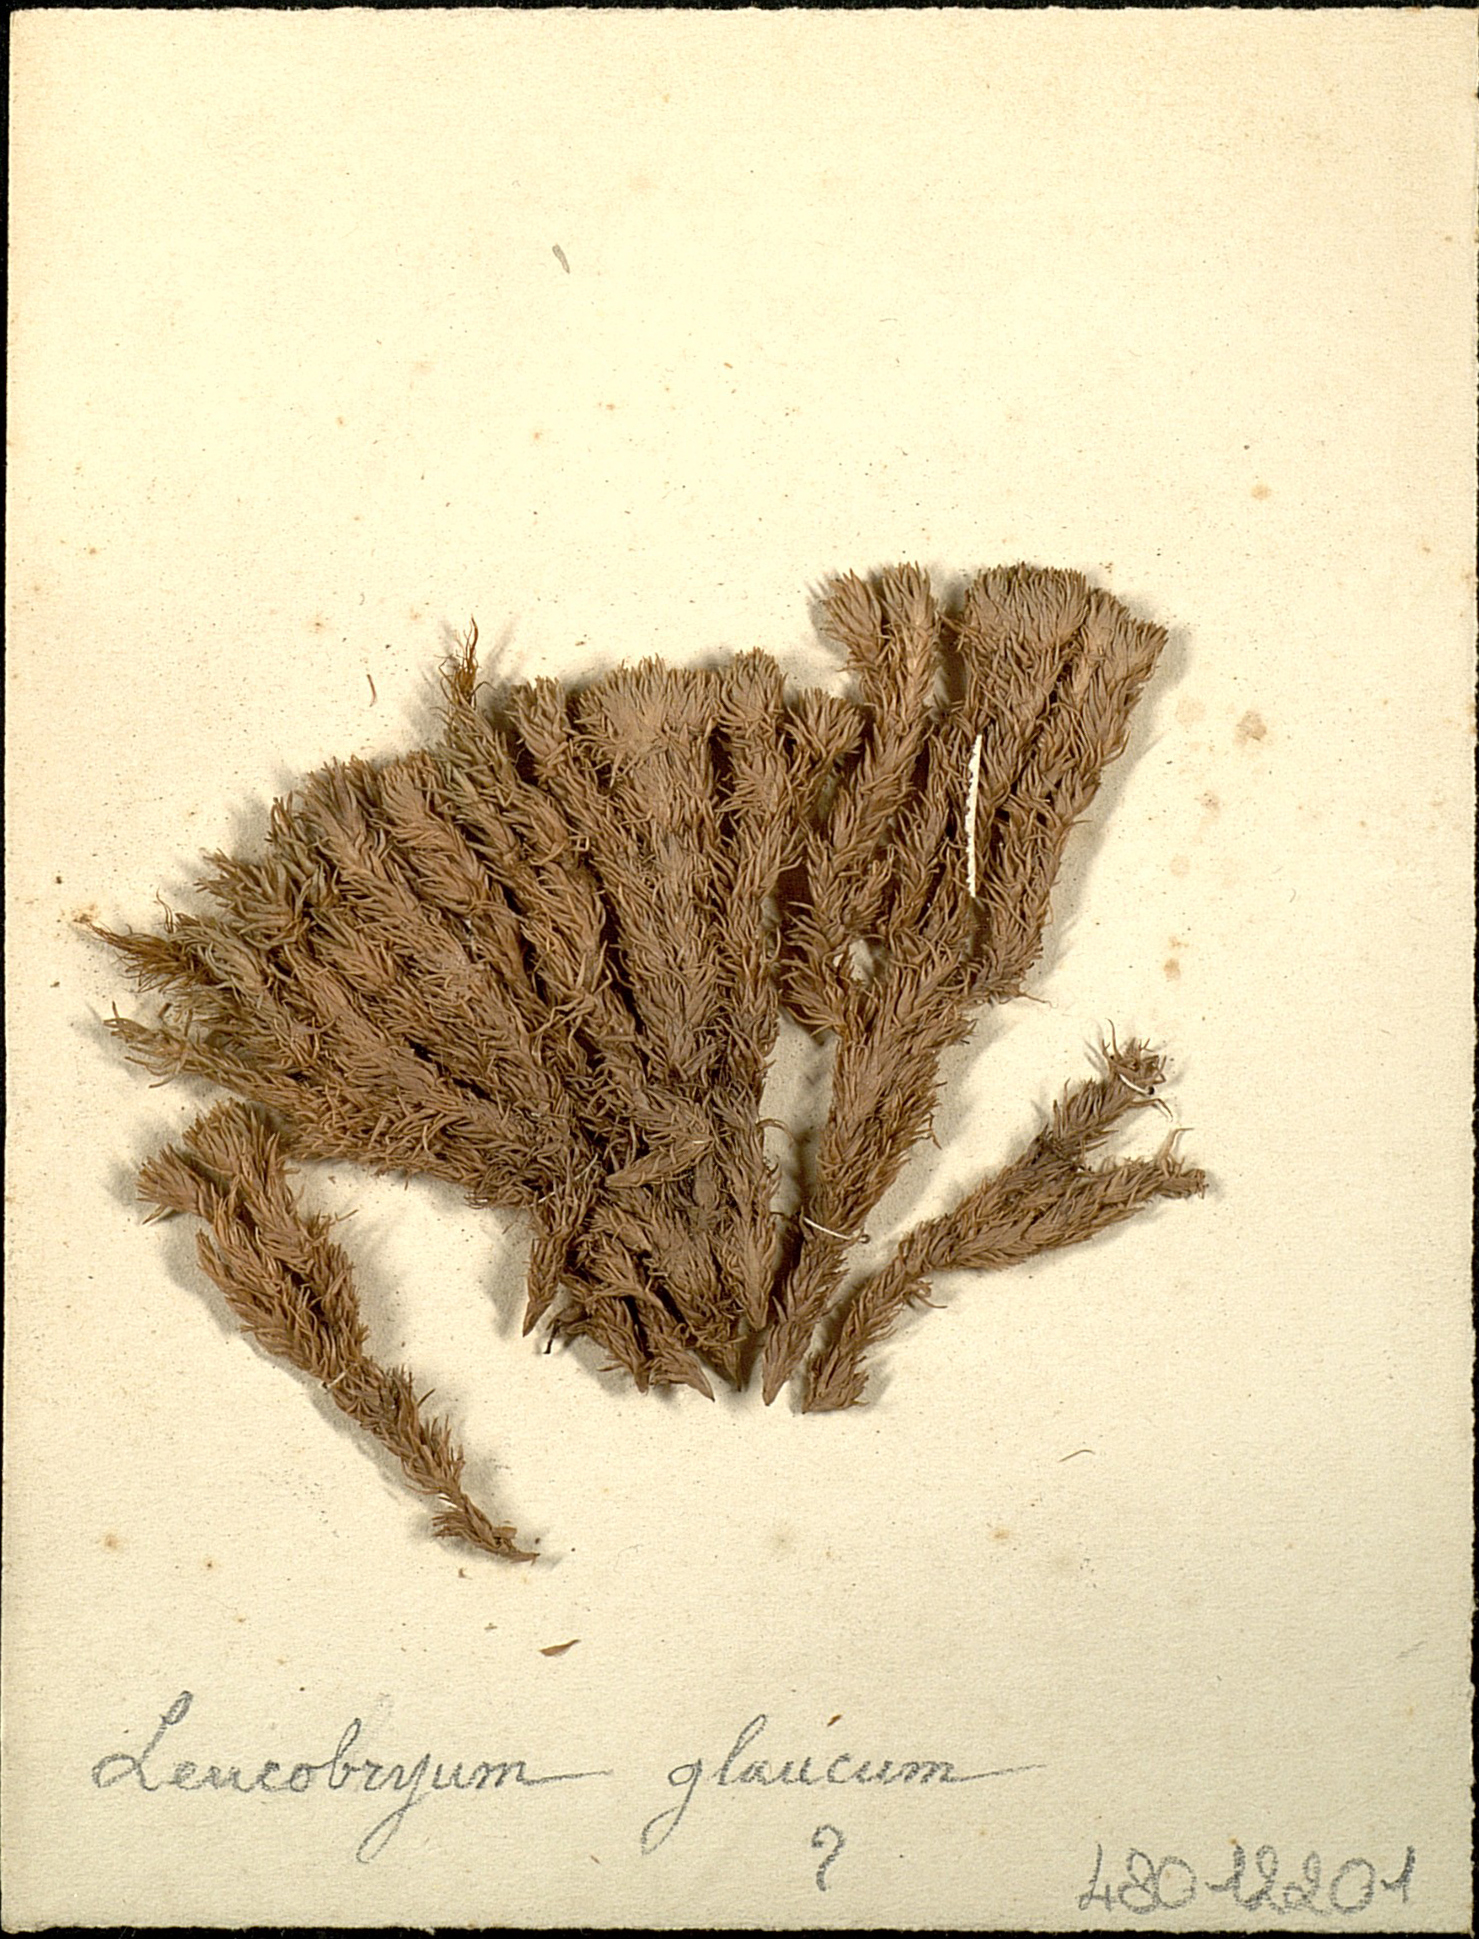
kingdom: Plantae
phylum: Bryophyta
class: Bryopsida
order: Dicranales
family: Leucobryaceae
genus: Leucobryum
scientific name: Leucobryum glaucum
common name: Large white-moss
